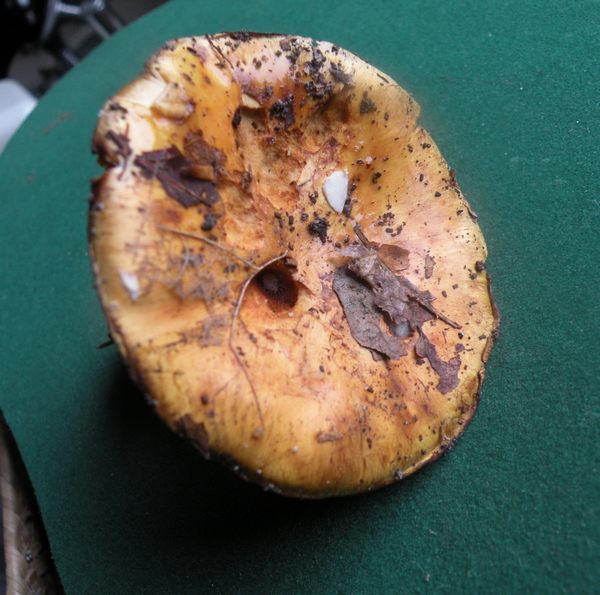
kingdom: Fungi
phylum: Basidiomycota
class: Agaricomycetes
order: Agaricales
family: Cortinariaceae
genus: Calonarius
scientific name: Calonarius olearioides
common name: safran-slørhat
